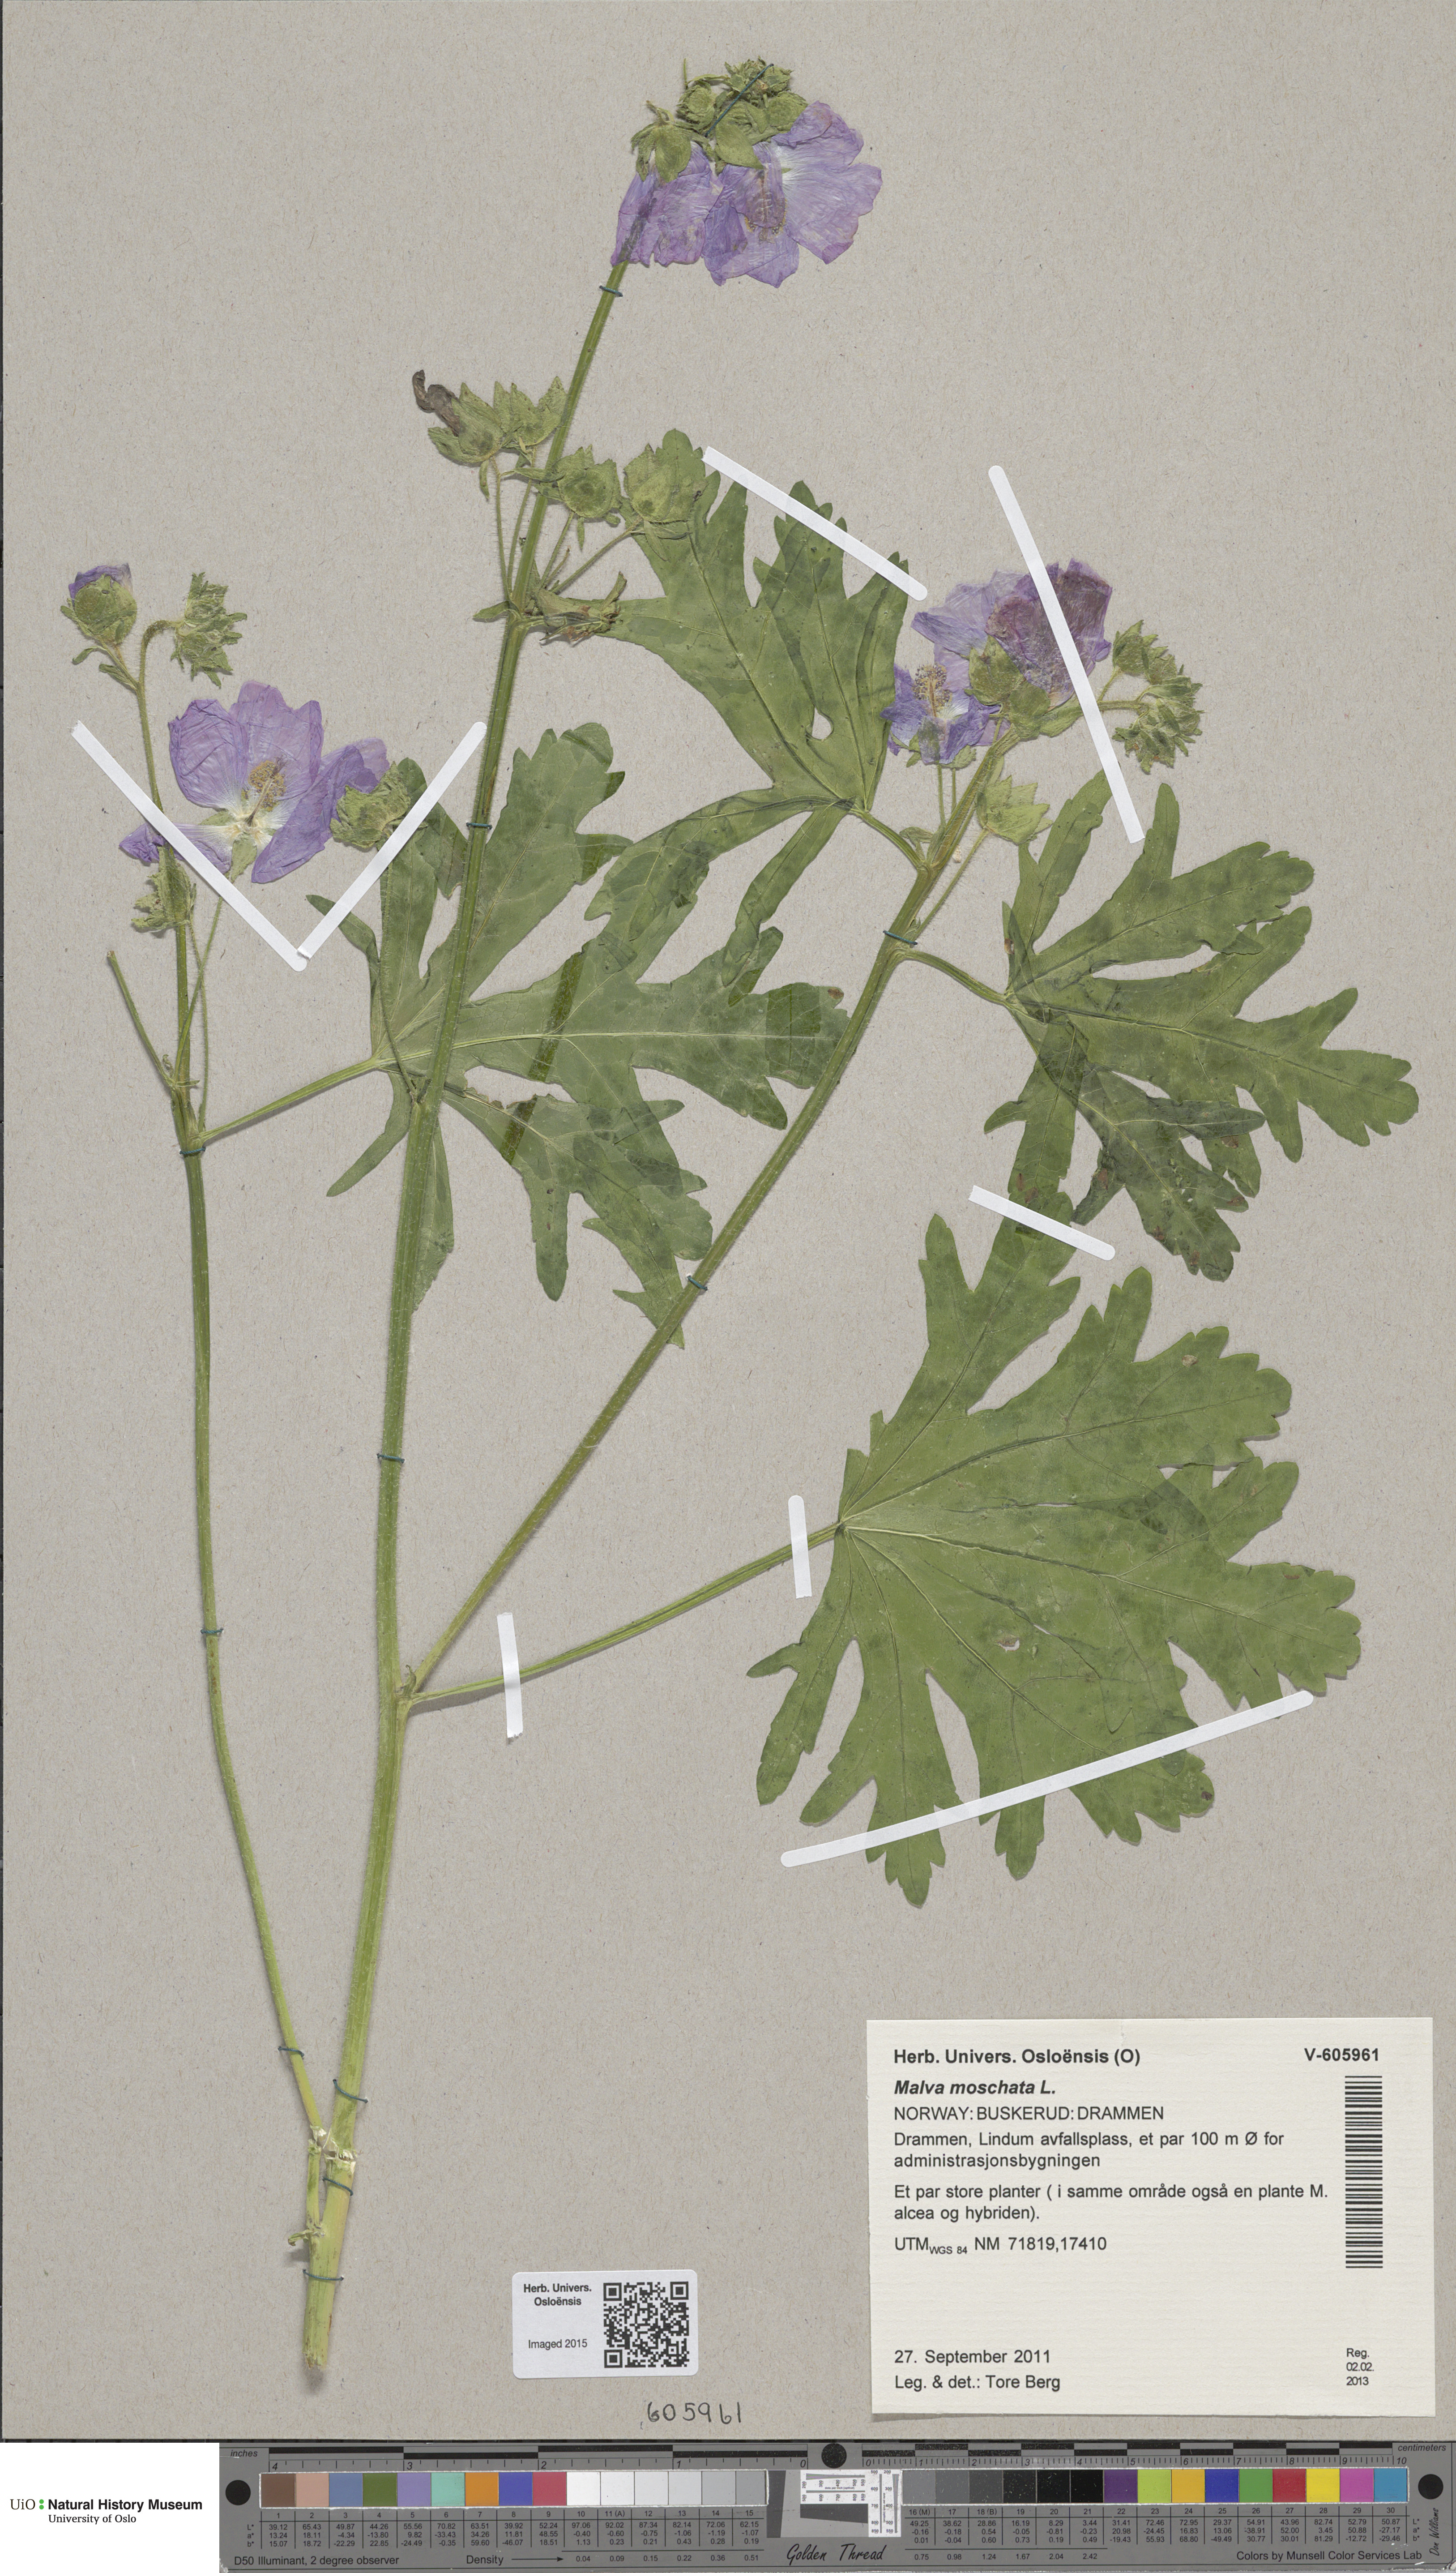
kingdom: Plantae
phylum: Tracheophyta
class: Magnoliopsida
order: Malvales
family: Malvaceae
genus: Malva
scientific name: Malva moschata
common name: Musk mallow
